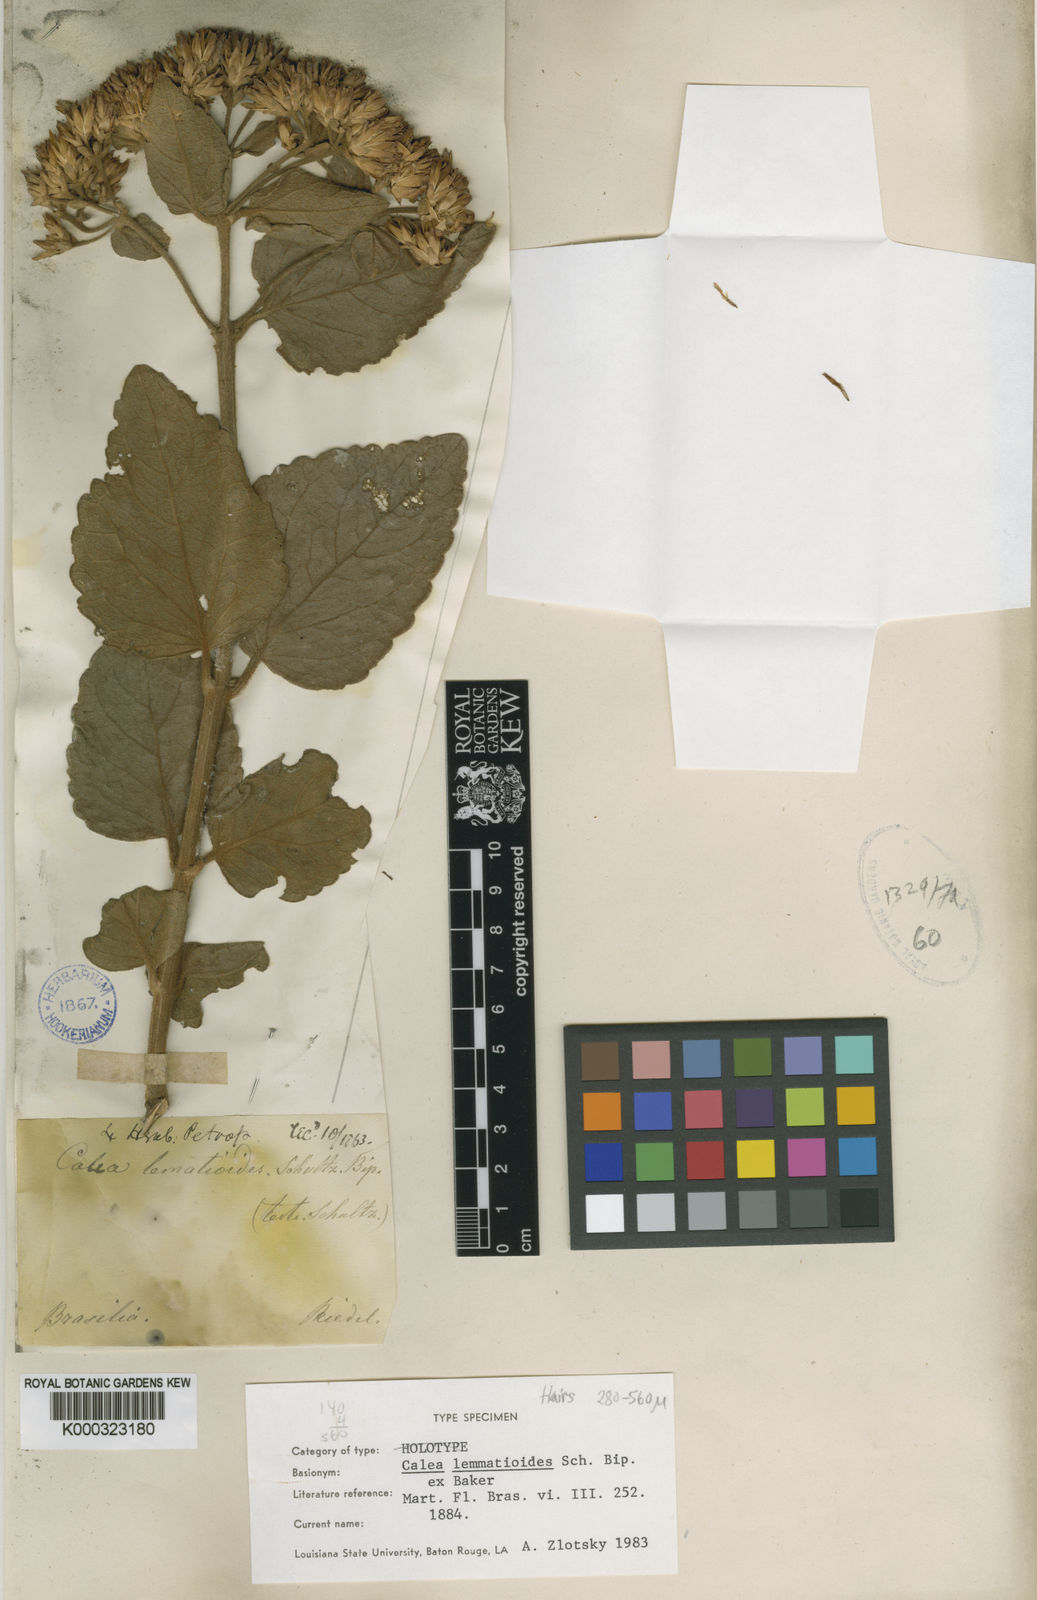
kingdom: Plantae
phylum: Tracheophyta
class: Magnoliopsida
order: Asterales
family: Asteraceae
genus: Calea
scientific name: Calea
